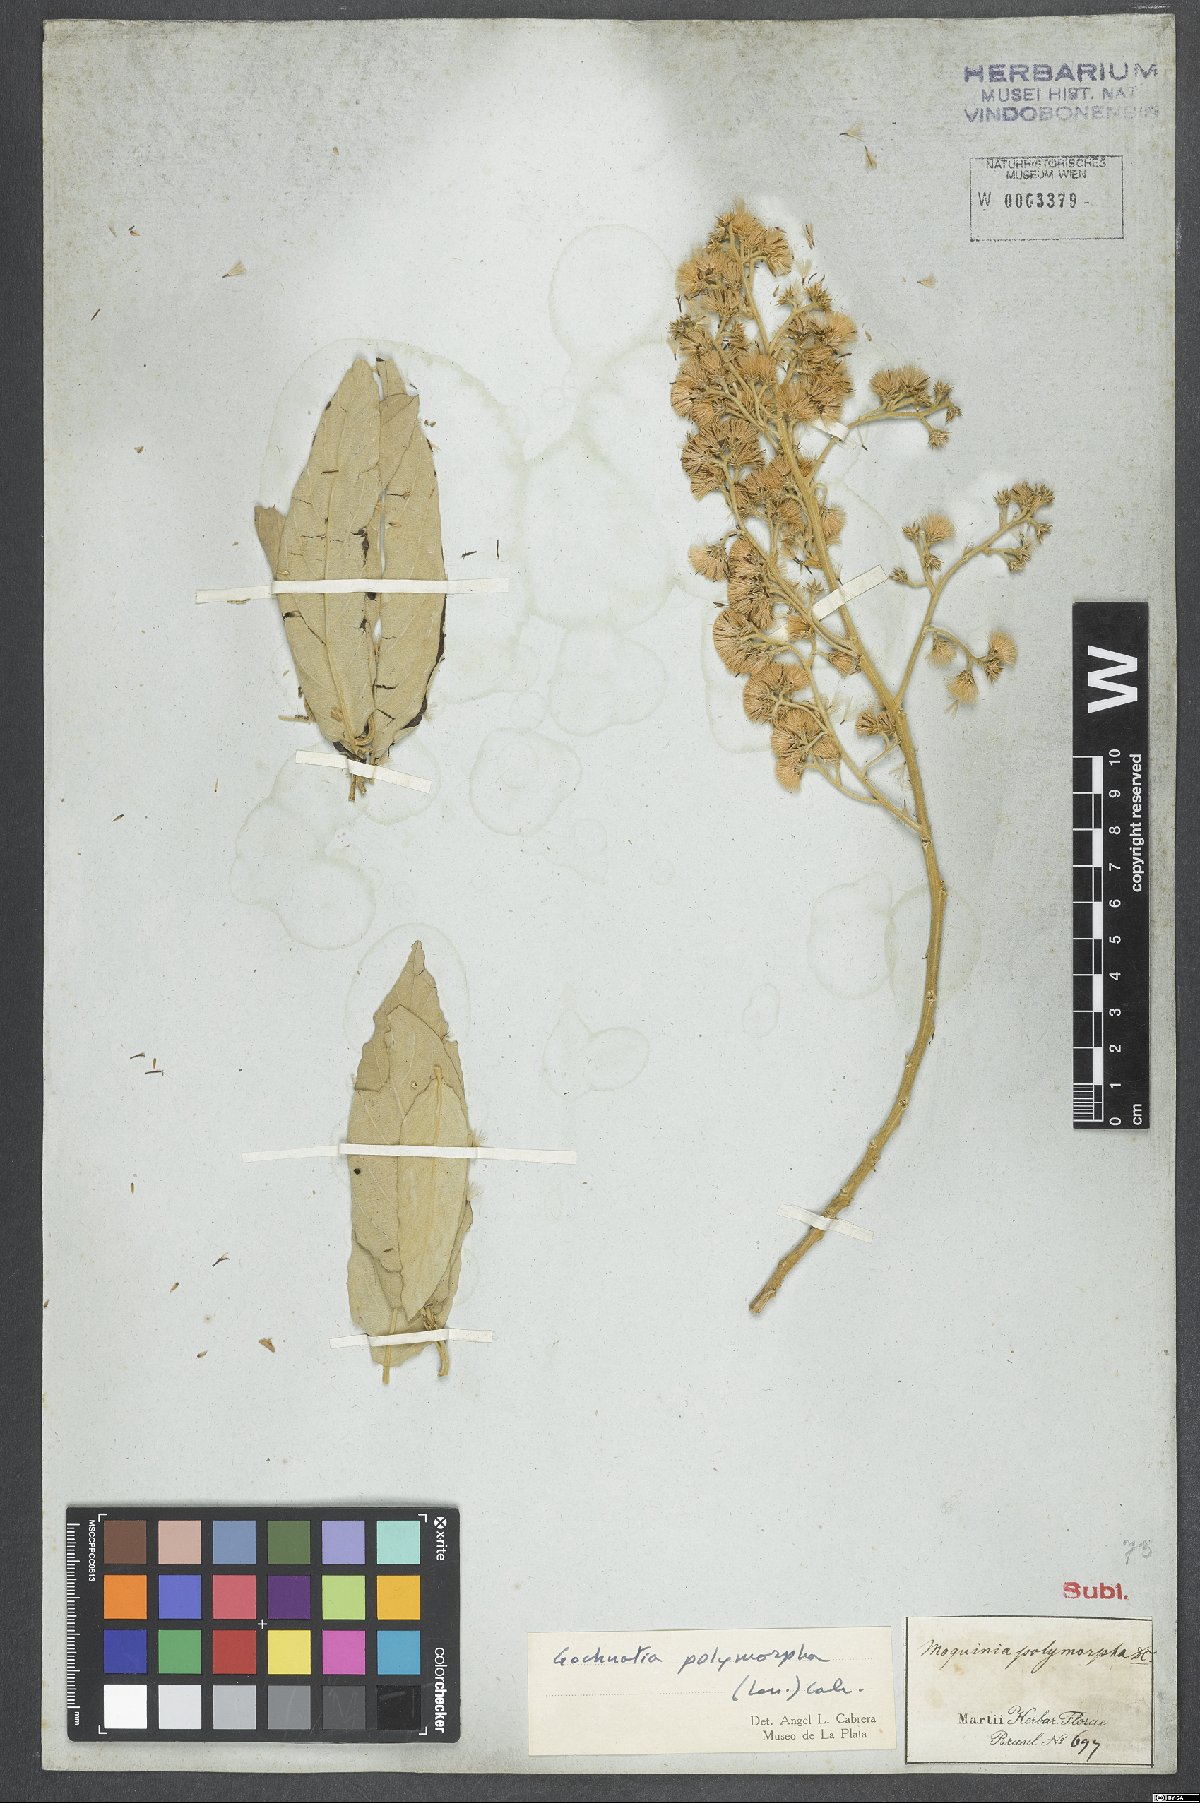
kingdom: Plantae
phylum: Tracheophyta
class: Magnoliopsida
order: Asterales
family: Asteraceae
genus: Moquiniastrum
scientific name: Moquiniastrum polymorphum
